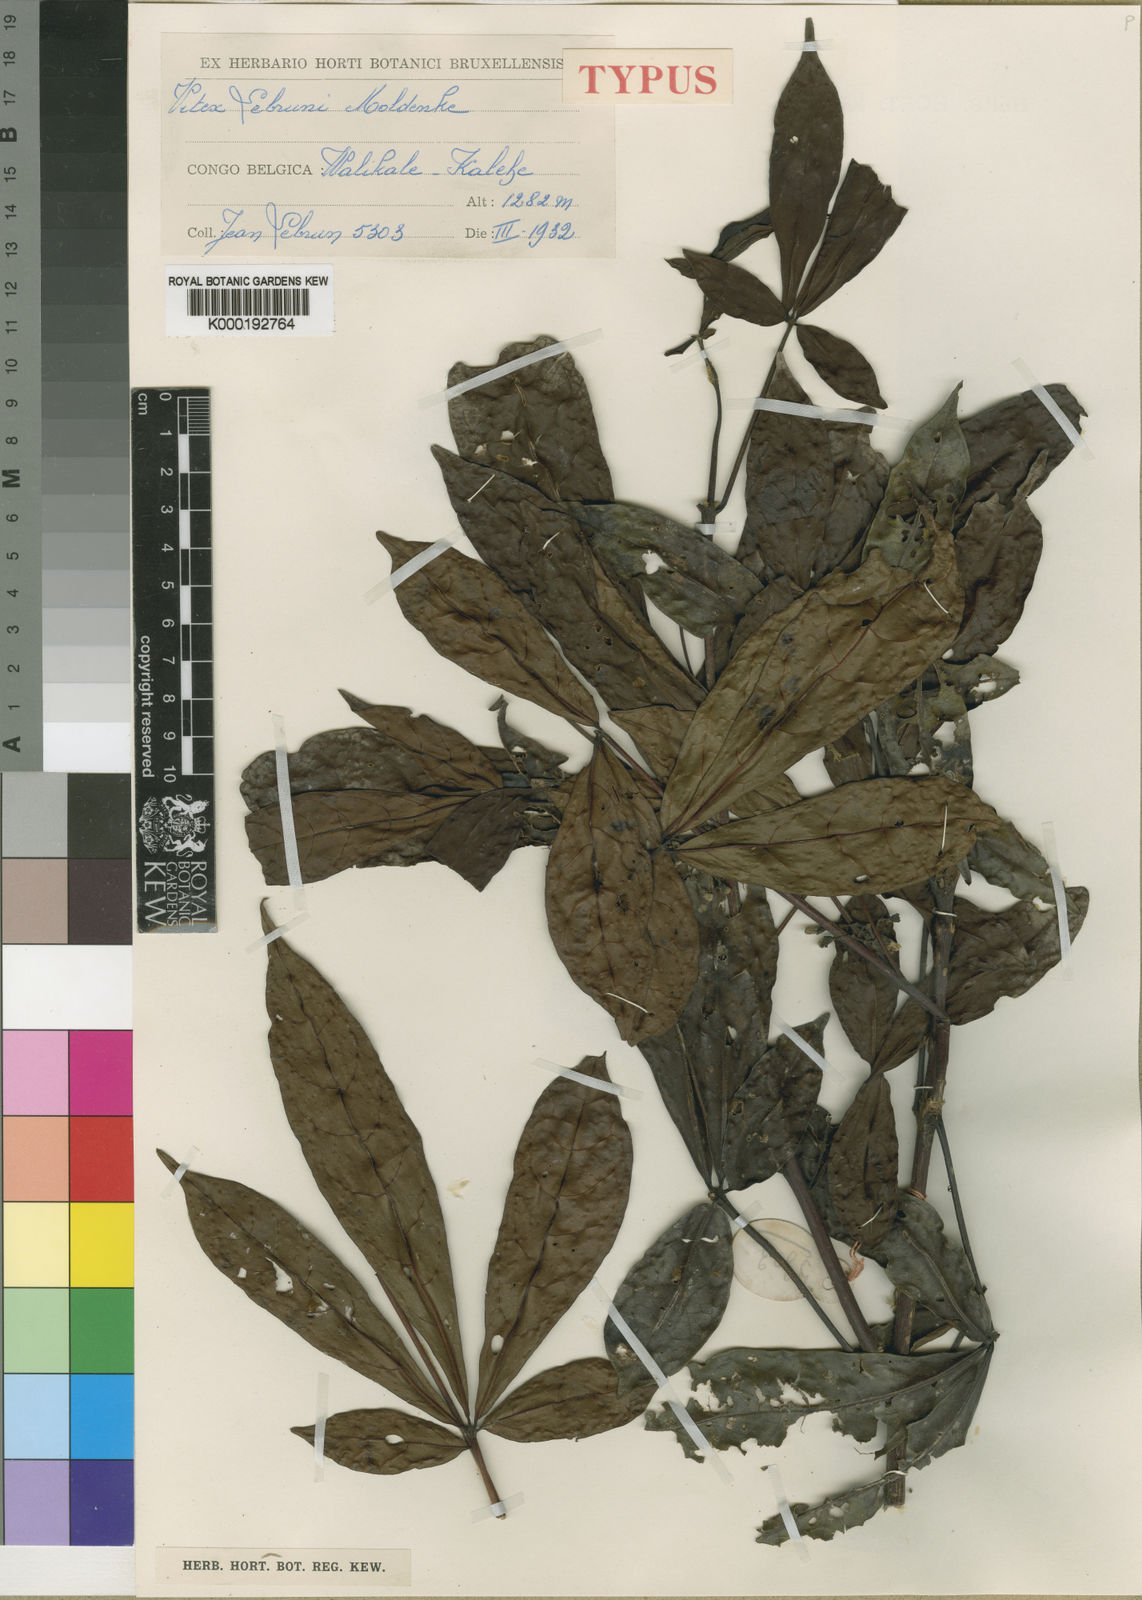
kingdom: Plantae
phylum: Tracheophyta
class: Magnoliopsida
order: Lamiales
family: Lamiaceae
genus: Vitex
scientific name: Vitex rubroaurantiaca
